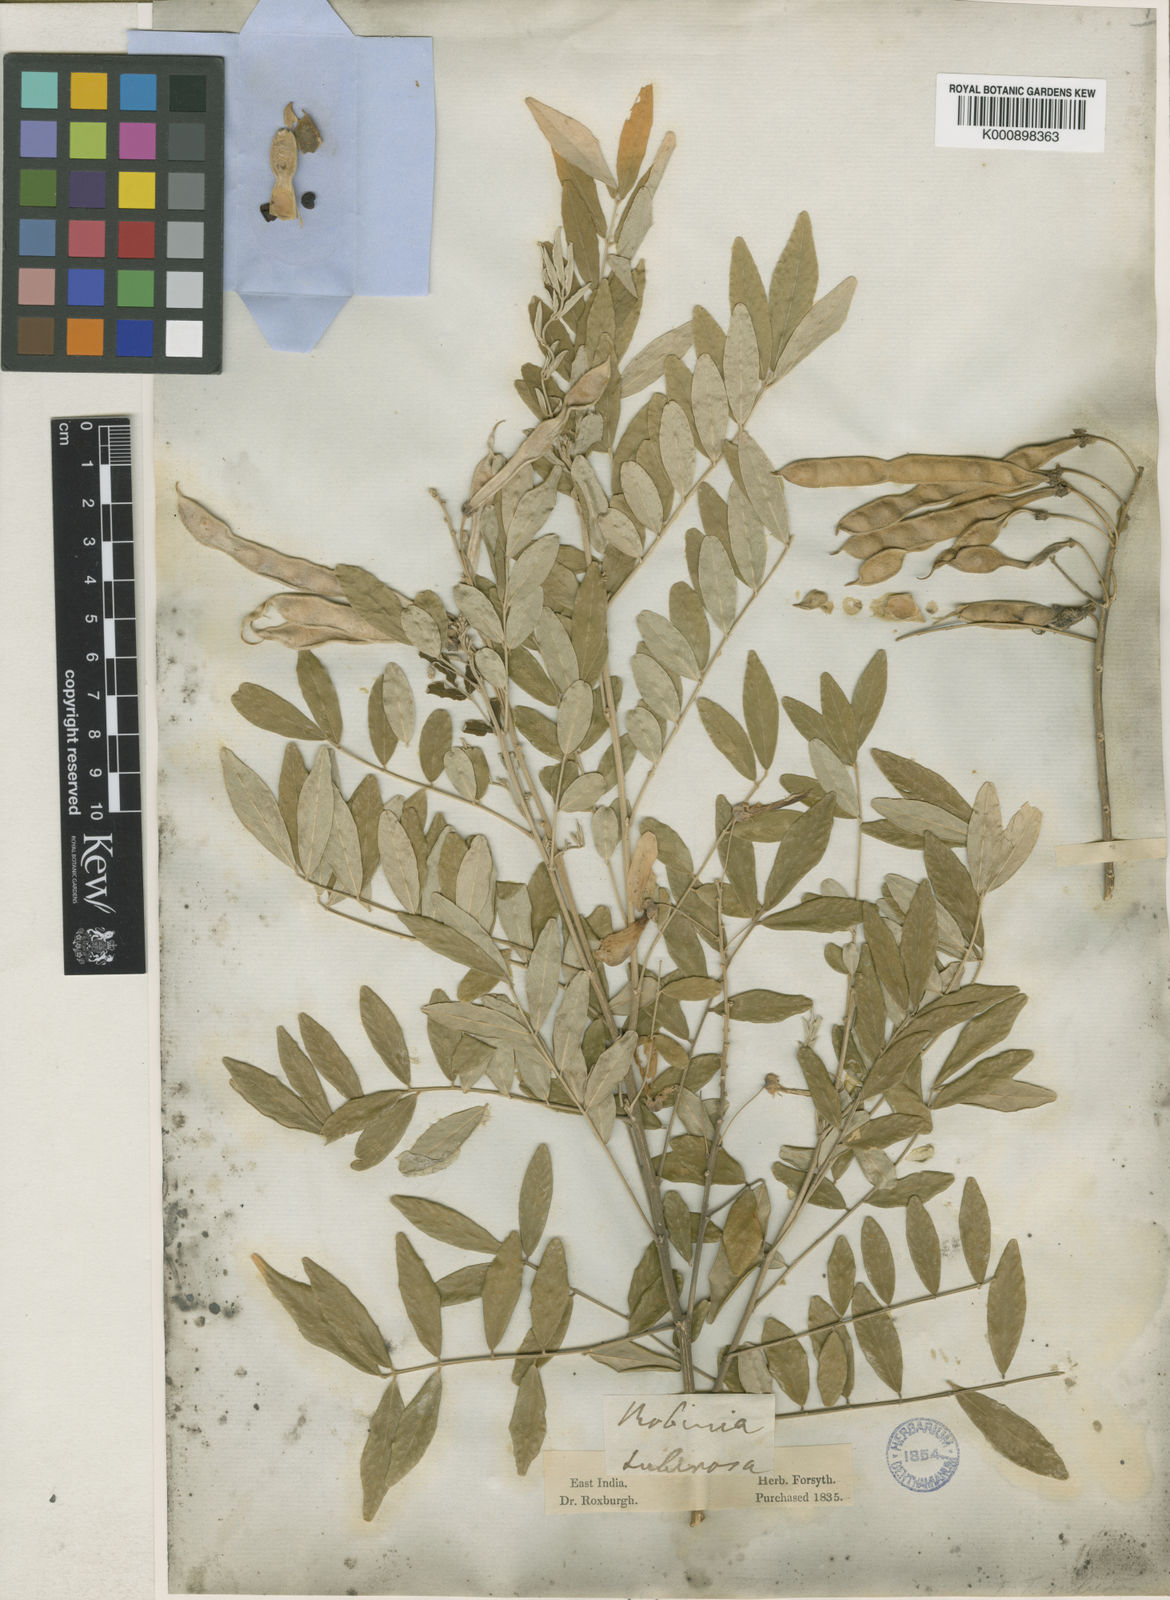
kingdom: Plantae
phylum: Tracheophyta
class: Magnoliopsida
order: Fabales
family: Fabaceae
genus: Mundulea
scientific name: Mundulea sericea
